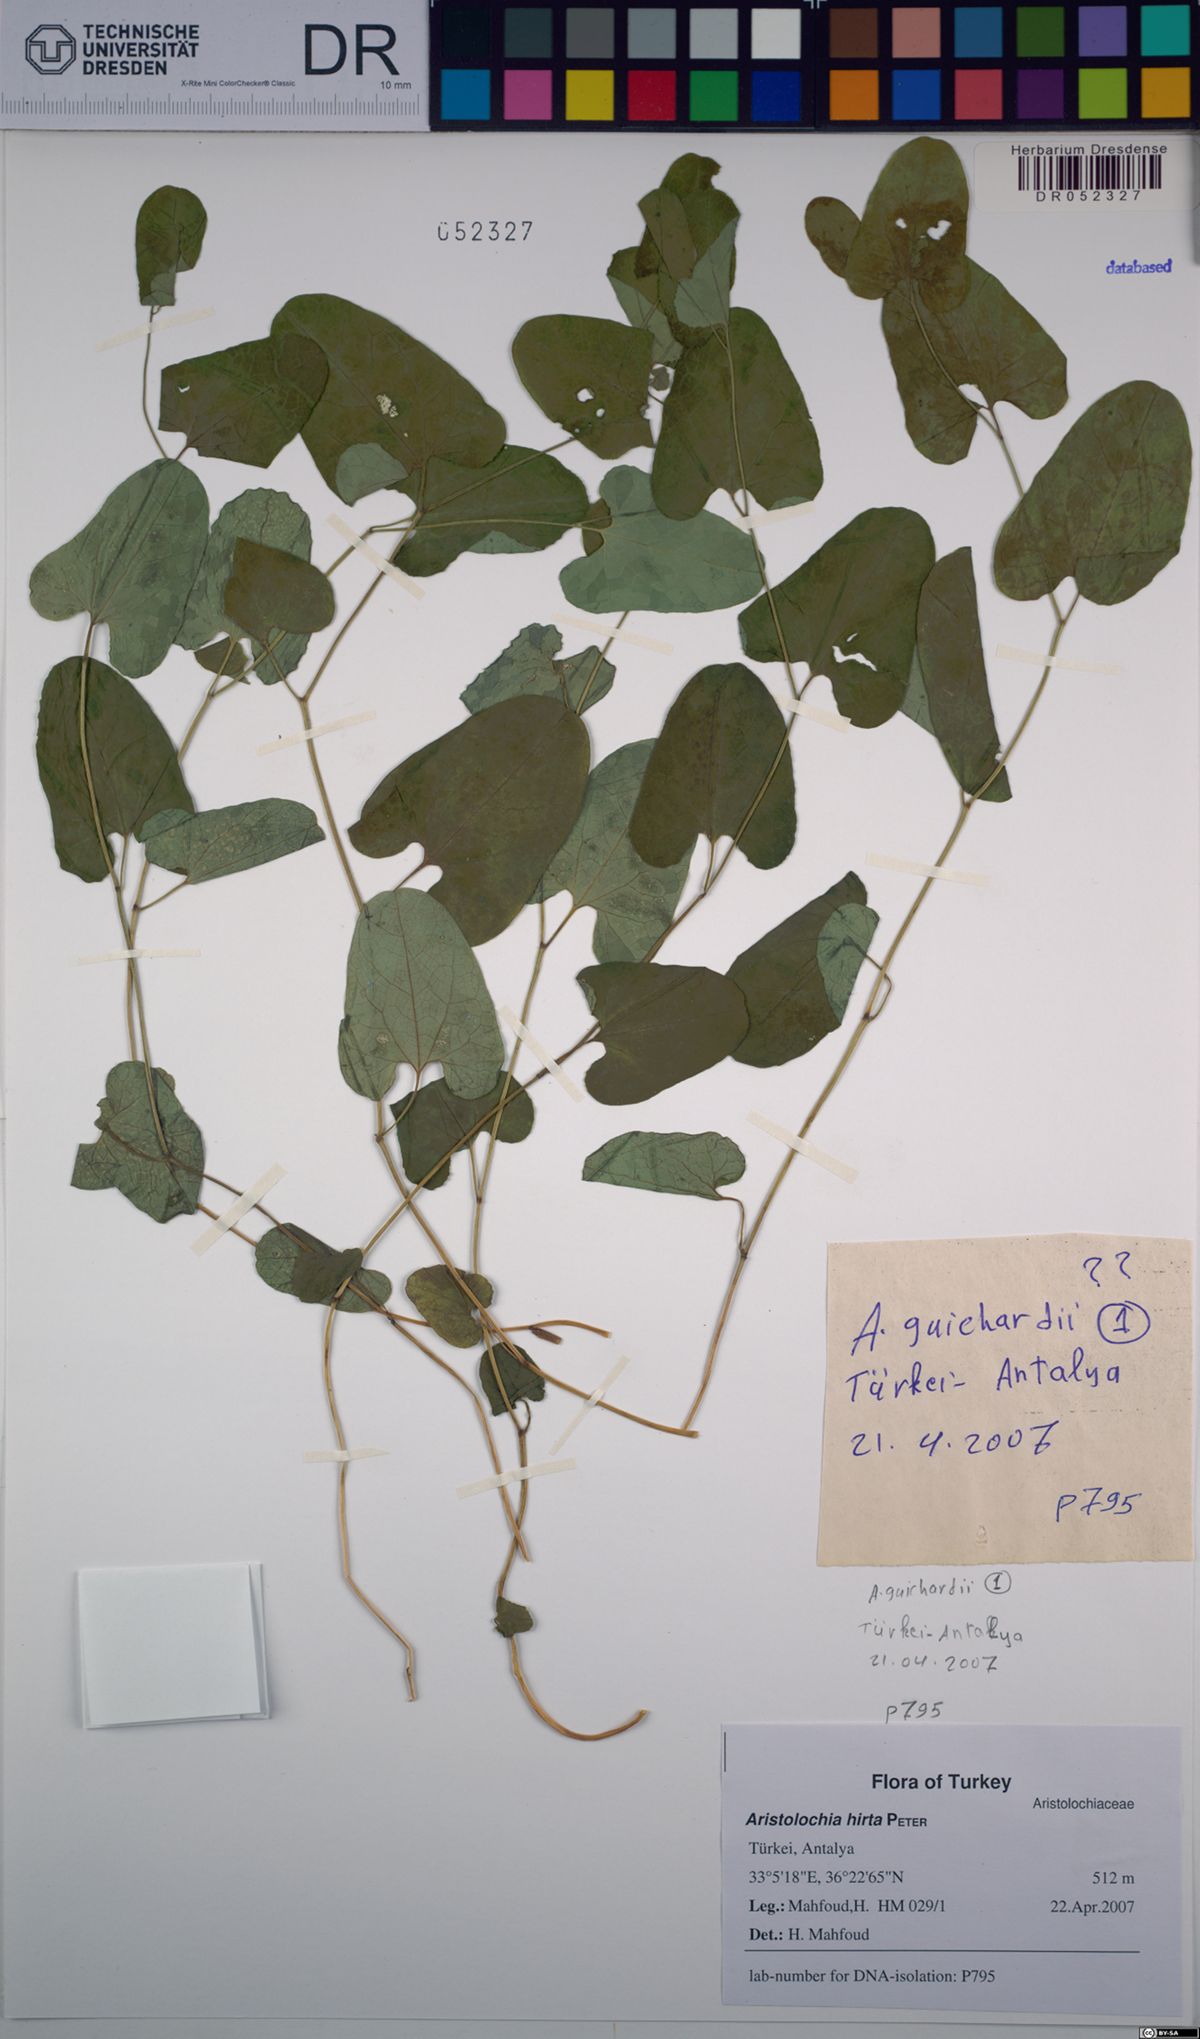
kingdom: Plantae
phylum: Tracheophyta
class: Magnoliopsida
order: Piperales
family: Aristolochiaceae
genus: Aristolochia
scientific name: Aristolochia hockii
